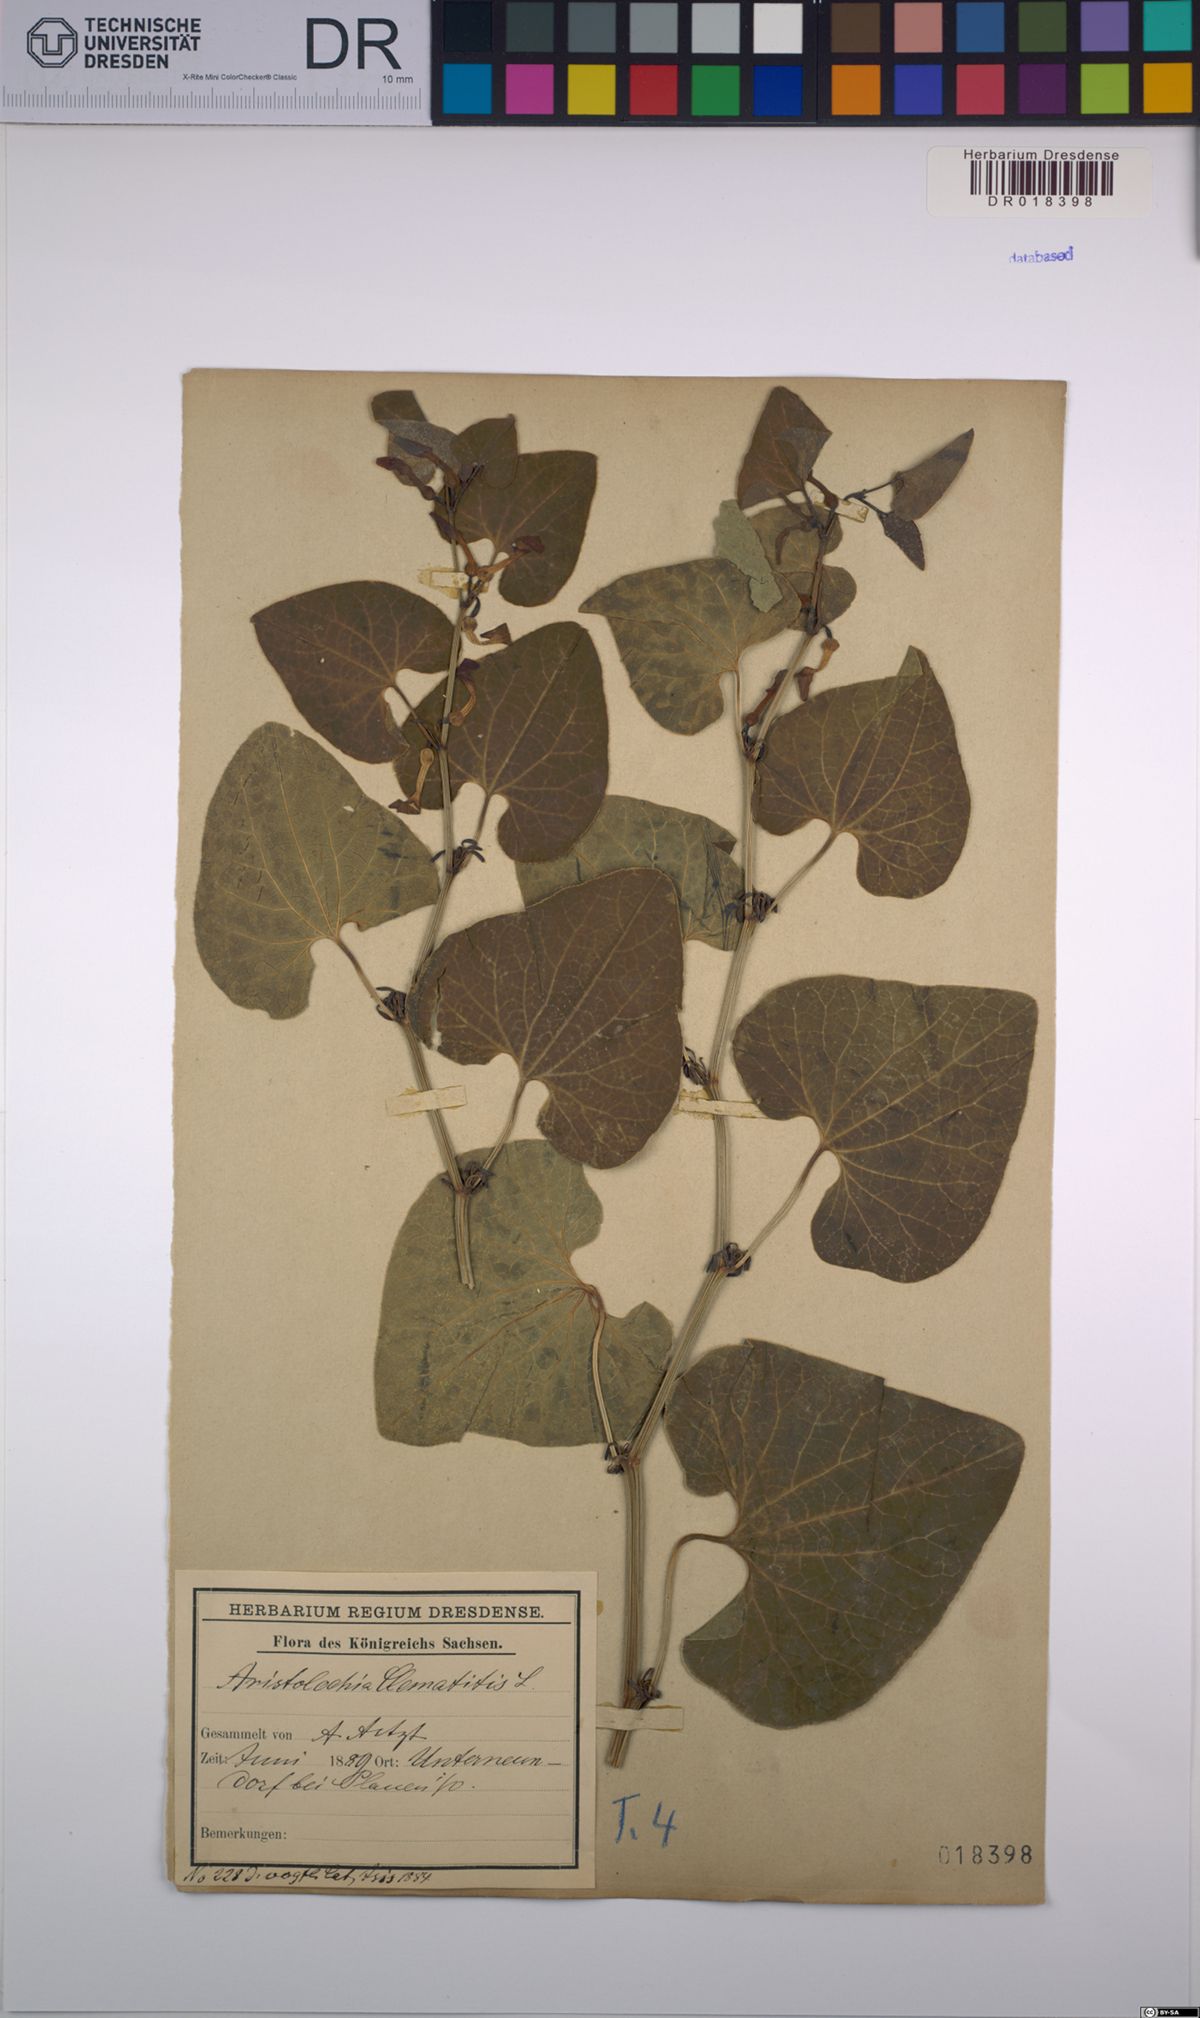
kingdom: Plantae
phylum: Tracheophyta
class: Magnoliopsida
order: Piperales
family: Aristolochiaceae
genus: Aristolochia
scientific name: Aristolochia clematitis
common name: Birthwort
